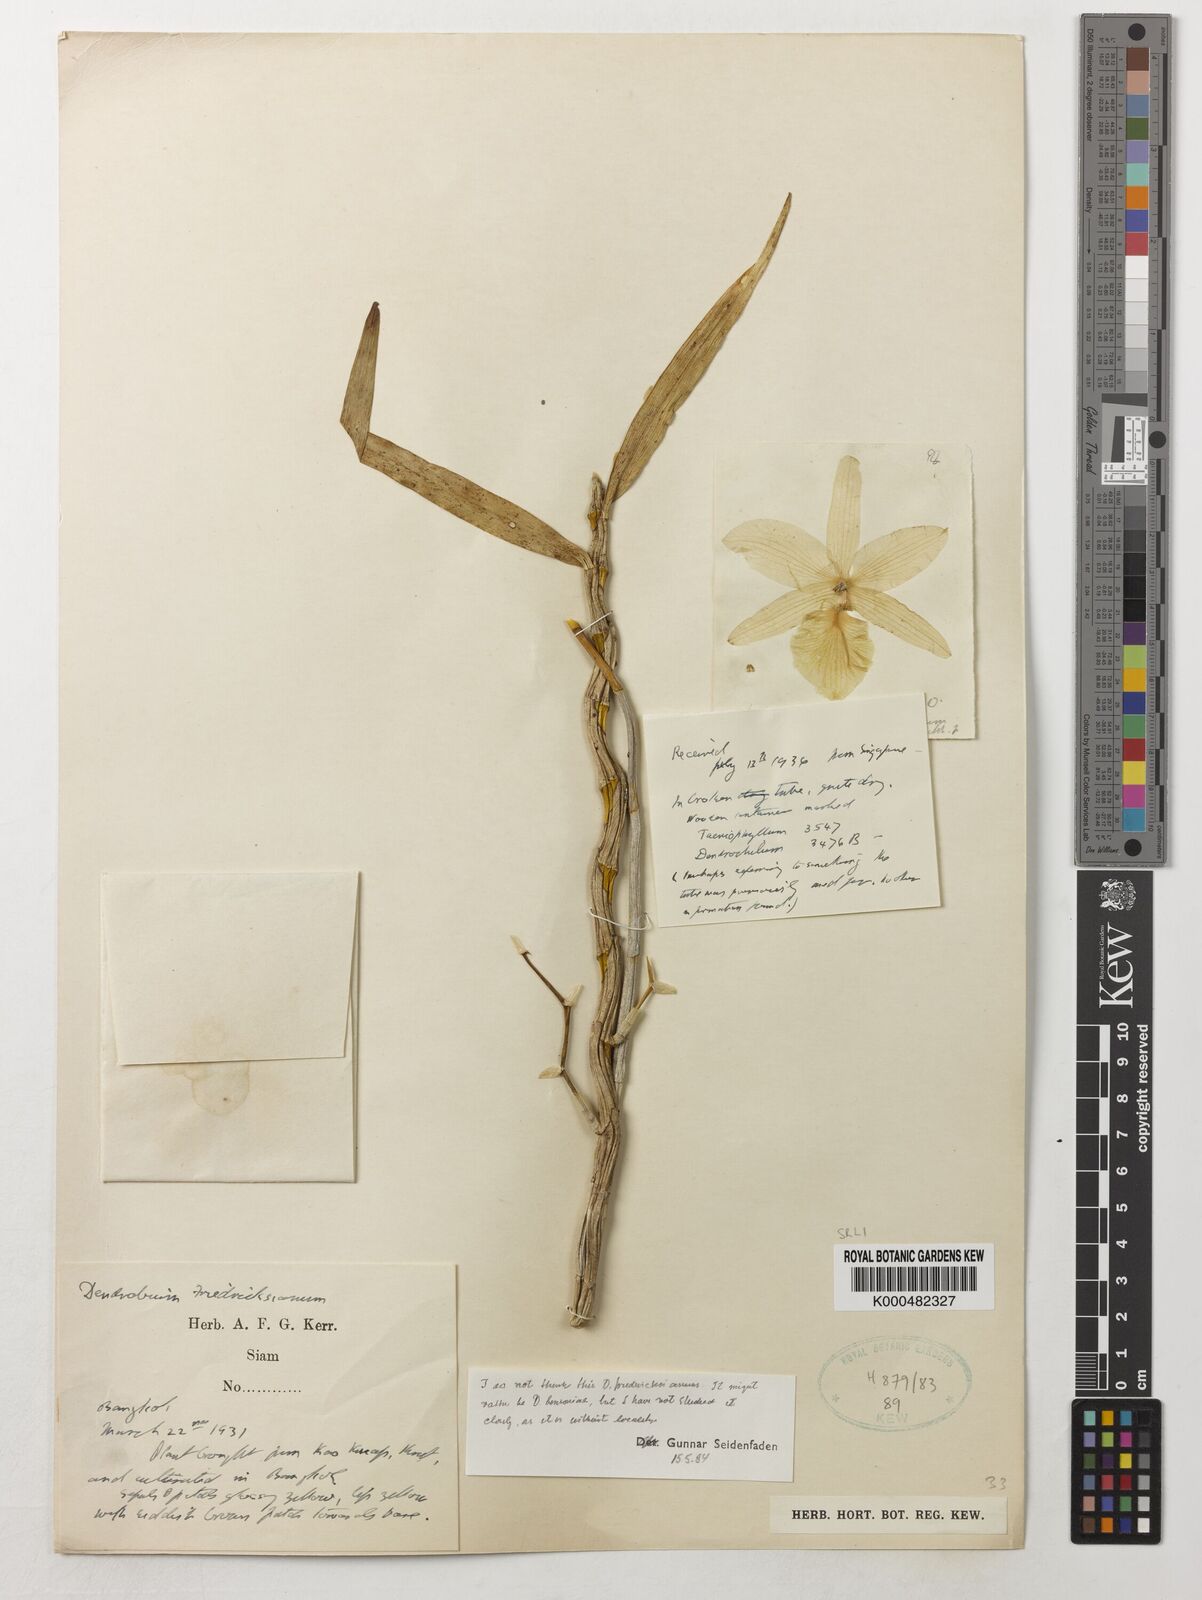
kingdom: Plantae
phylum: Tracheophyta
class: Liliopsida
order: Asparagales
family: Orchidaceae
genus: Dendrobium
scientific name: Dendrobium bensoniae
